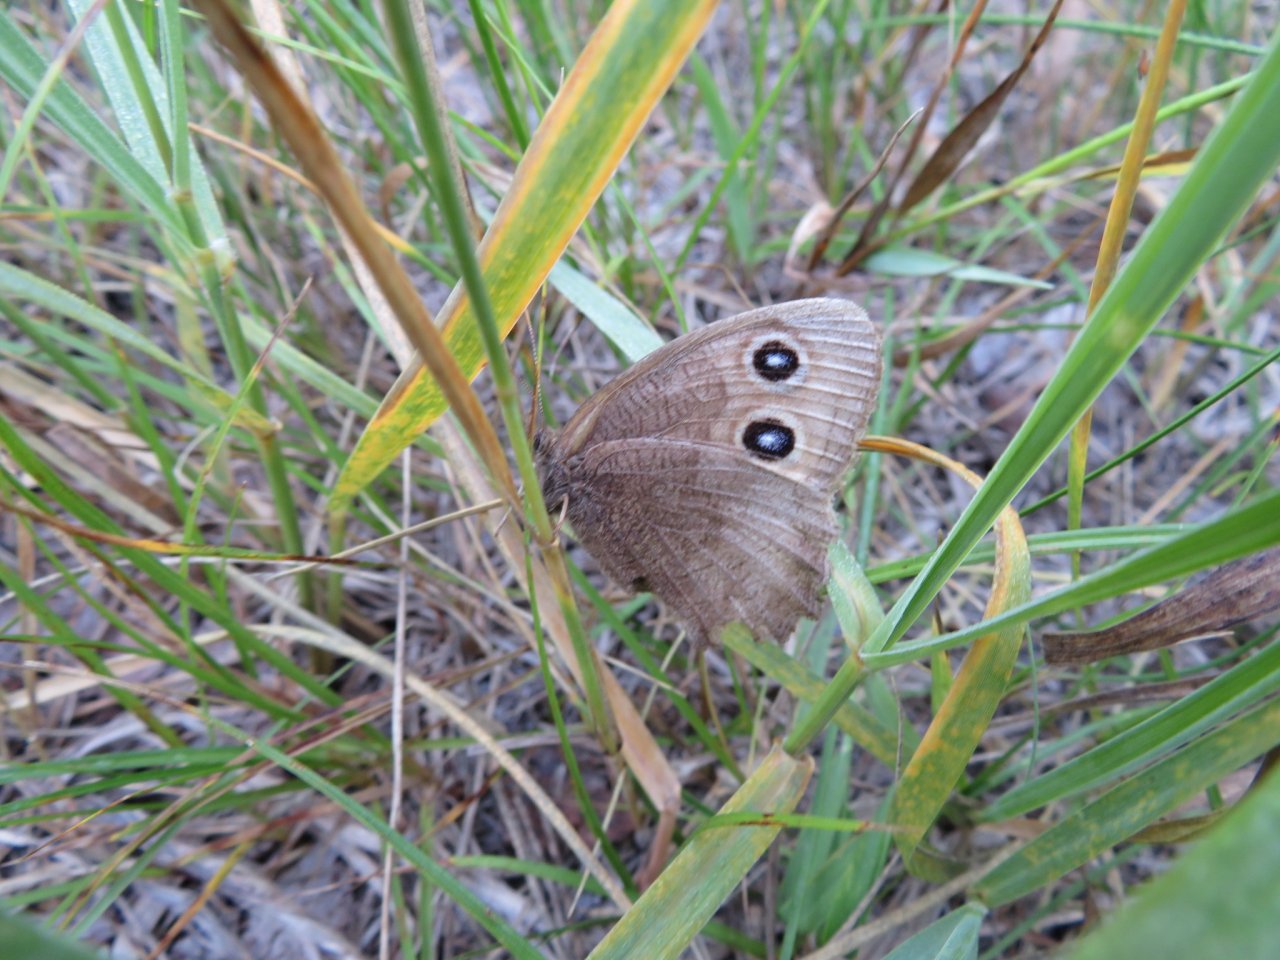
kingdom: Animalia
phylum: Arthropoda
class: Insecta
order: Lepidoptera
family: Nymphalidae
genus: Cercyonis
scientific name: Cercyonis pegala
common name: Common Wood-Nymph
